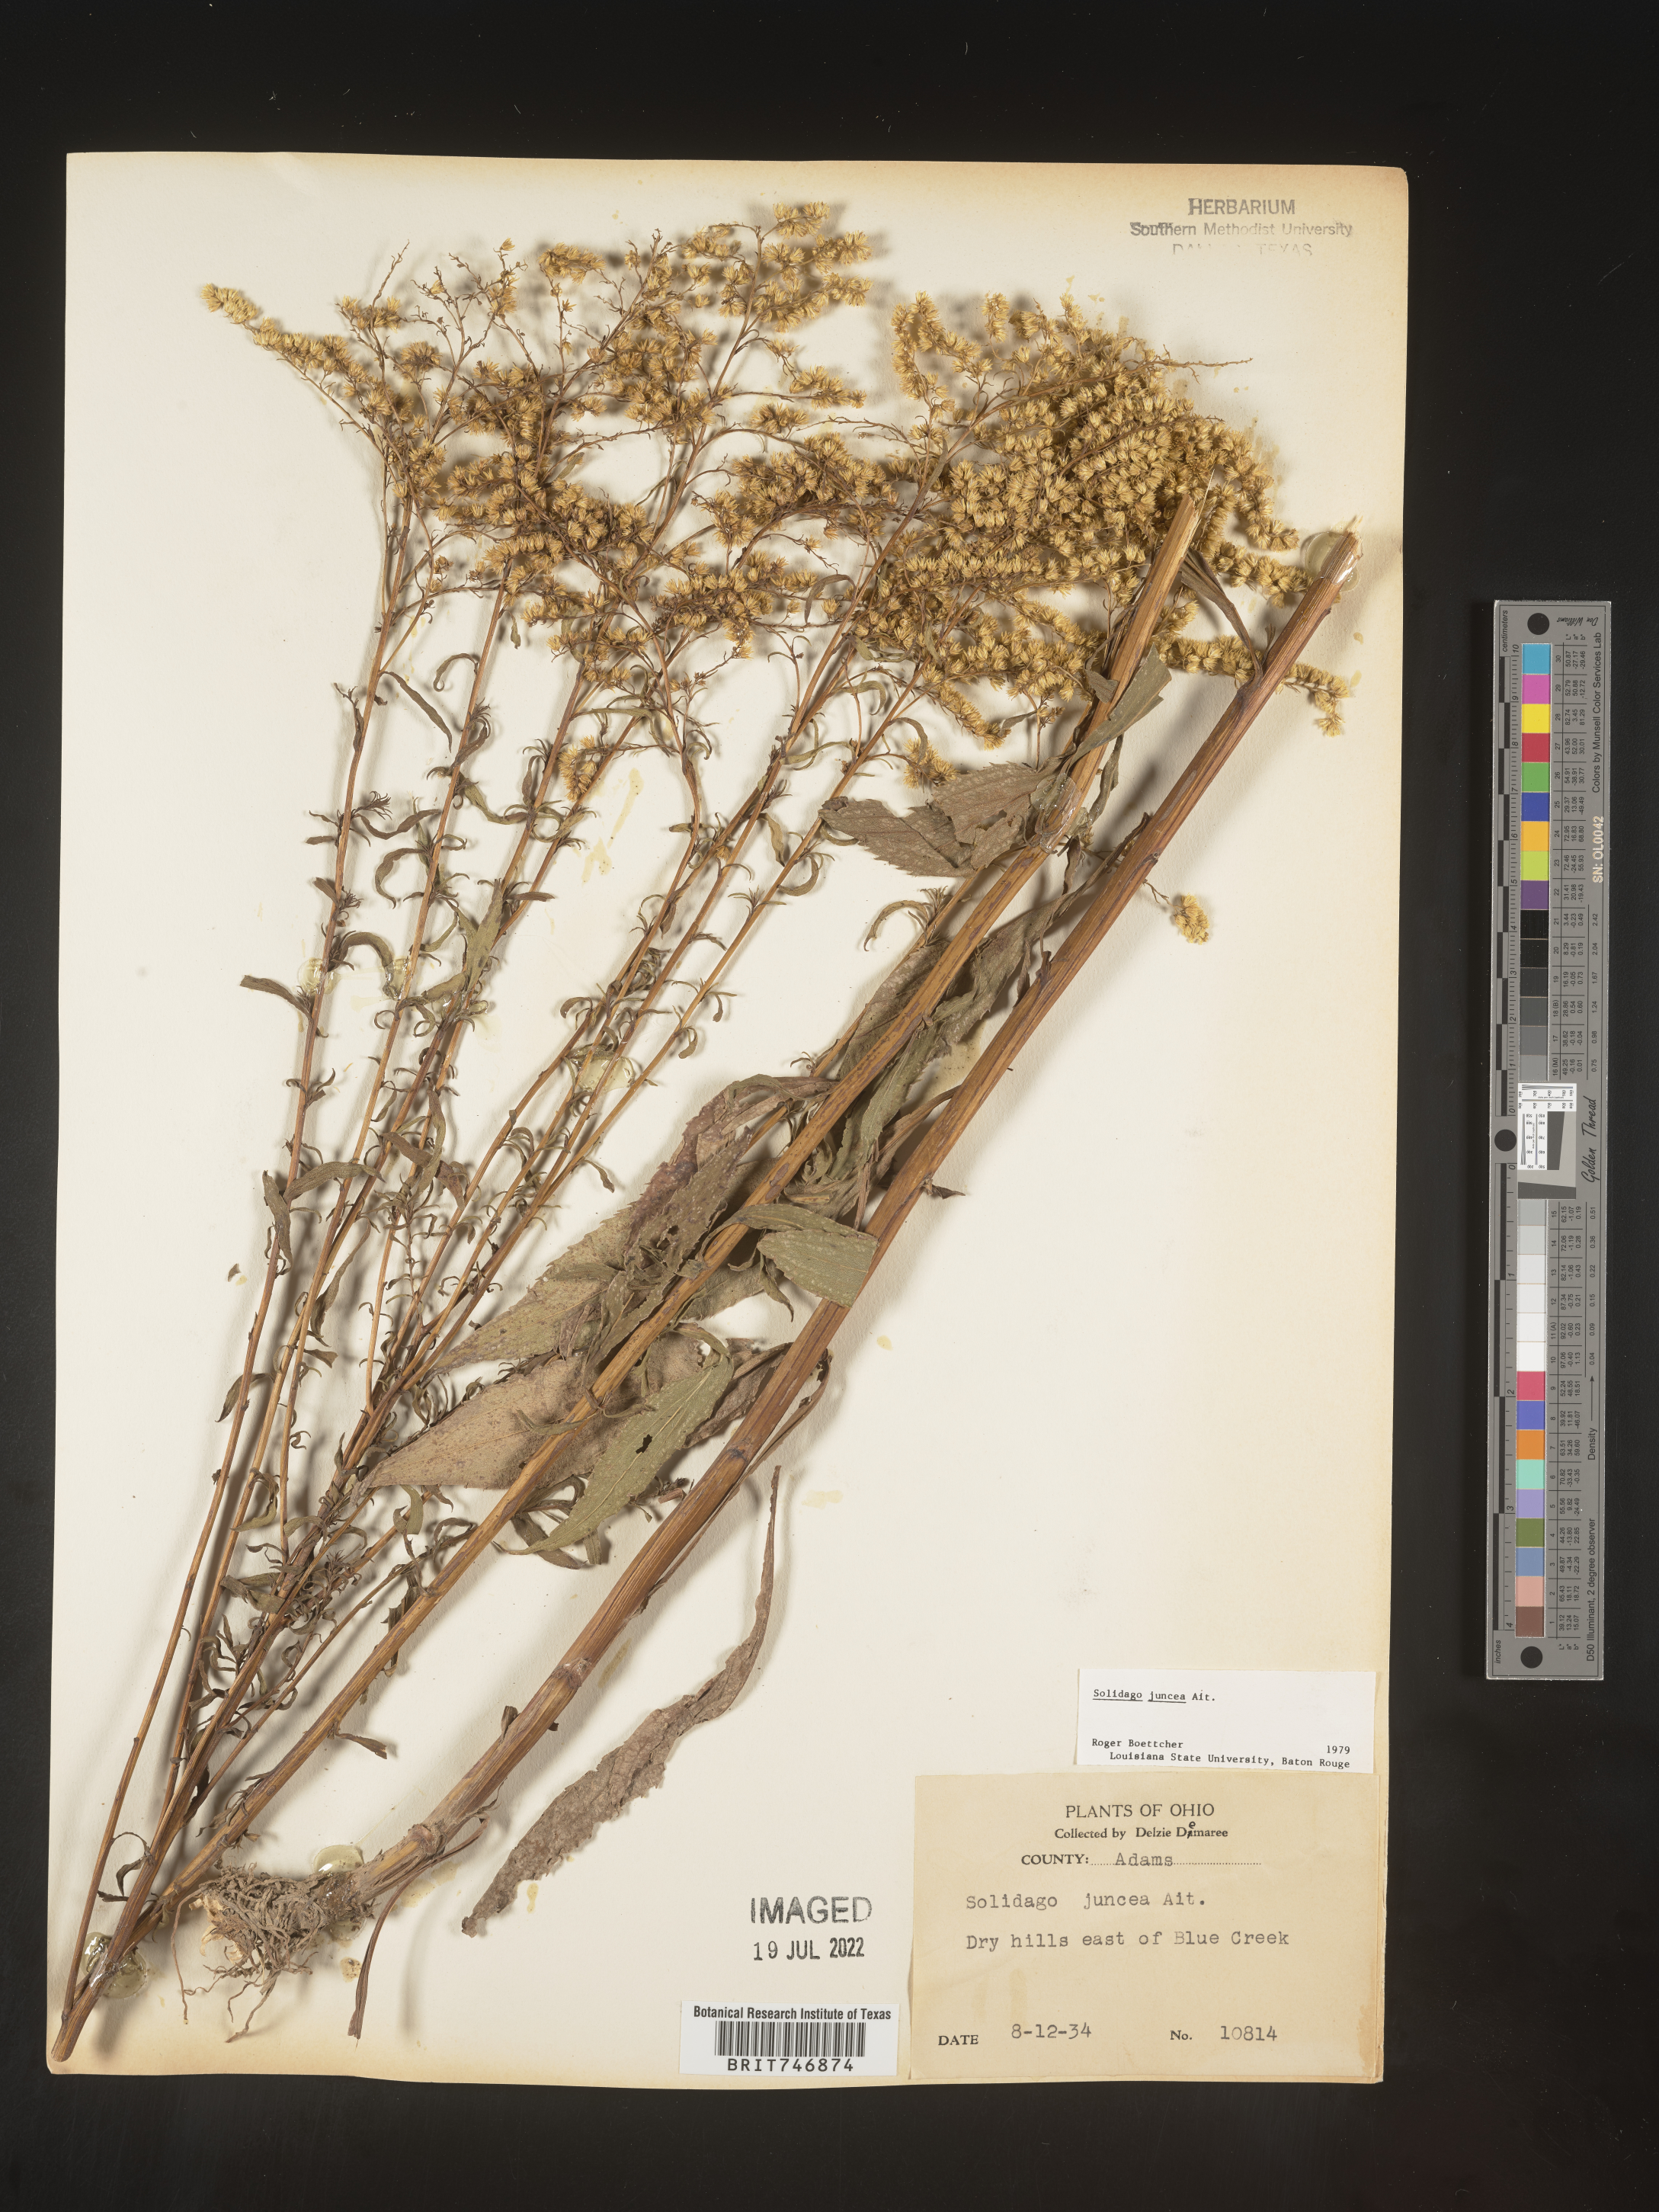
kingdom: Plantae
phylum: Tracheophyta
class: Magnoliopsida
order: Asterales
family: Asteraceae
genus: Solidago
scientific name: Solidago juncea
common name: Early goldenrod
